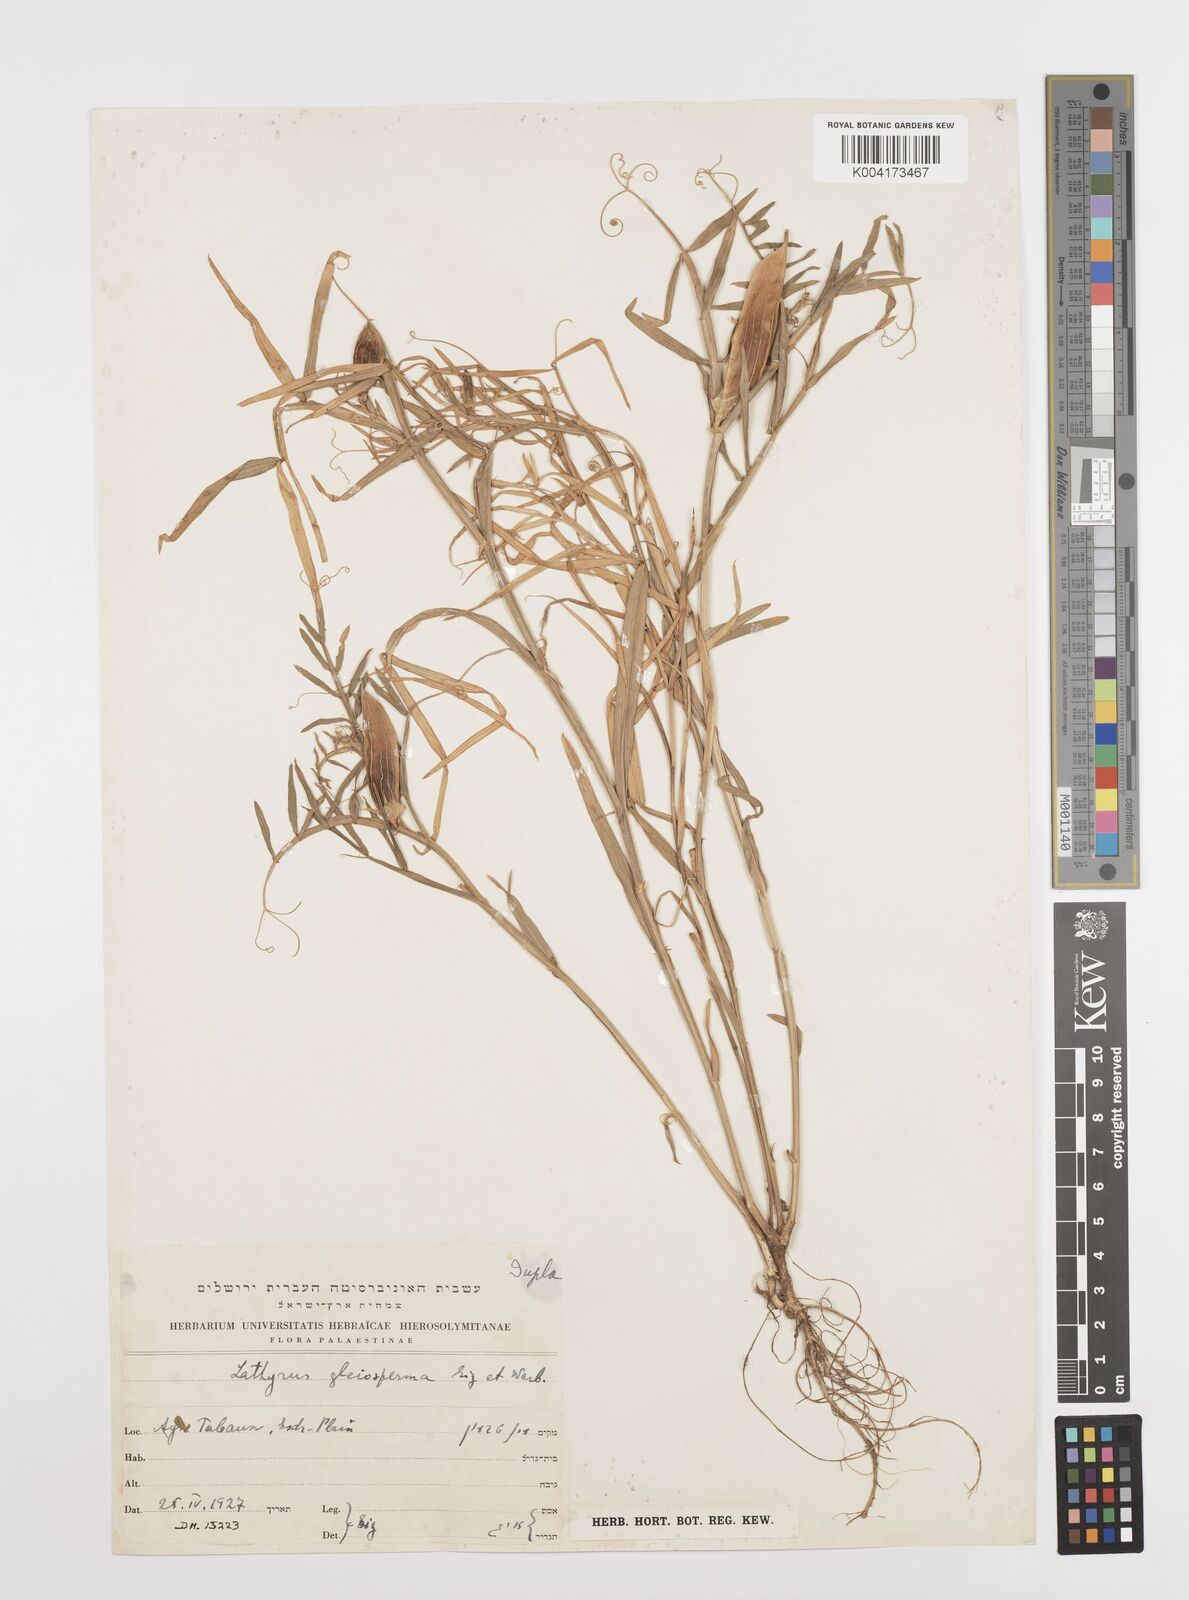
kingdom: Plantae
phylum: Tracheophyta
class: Magnoliopsida
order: Fabales
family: Fabaceae
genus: Lathyrus
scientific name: Lathyrus gloeosperma
